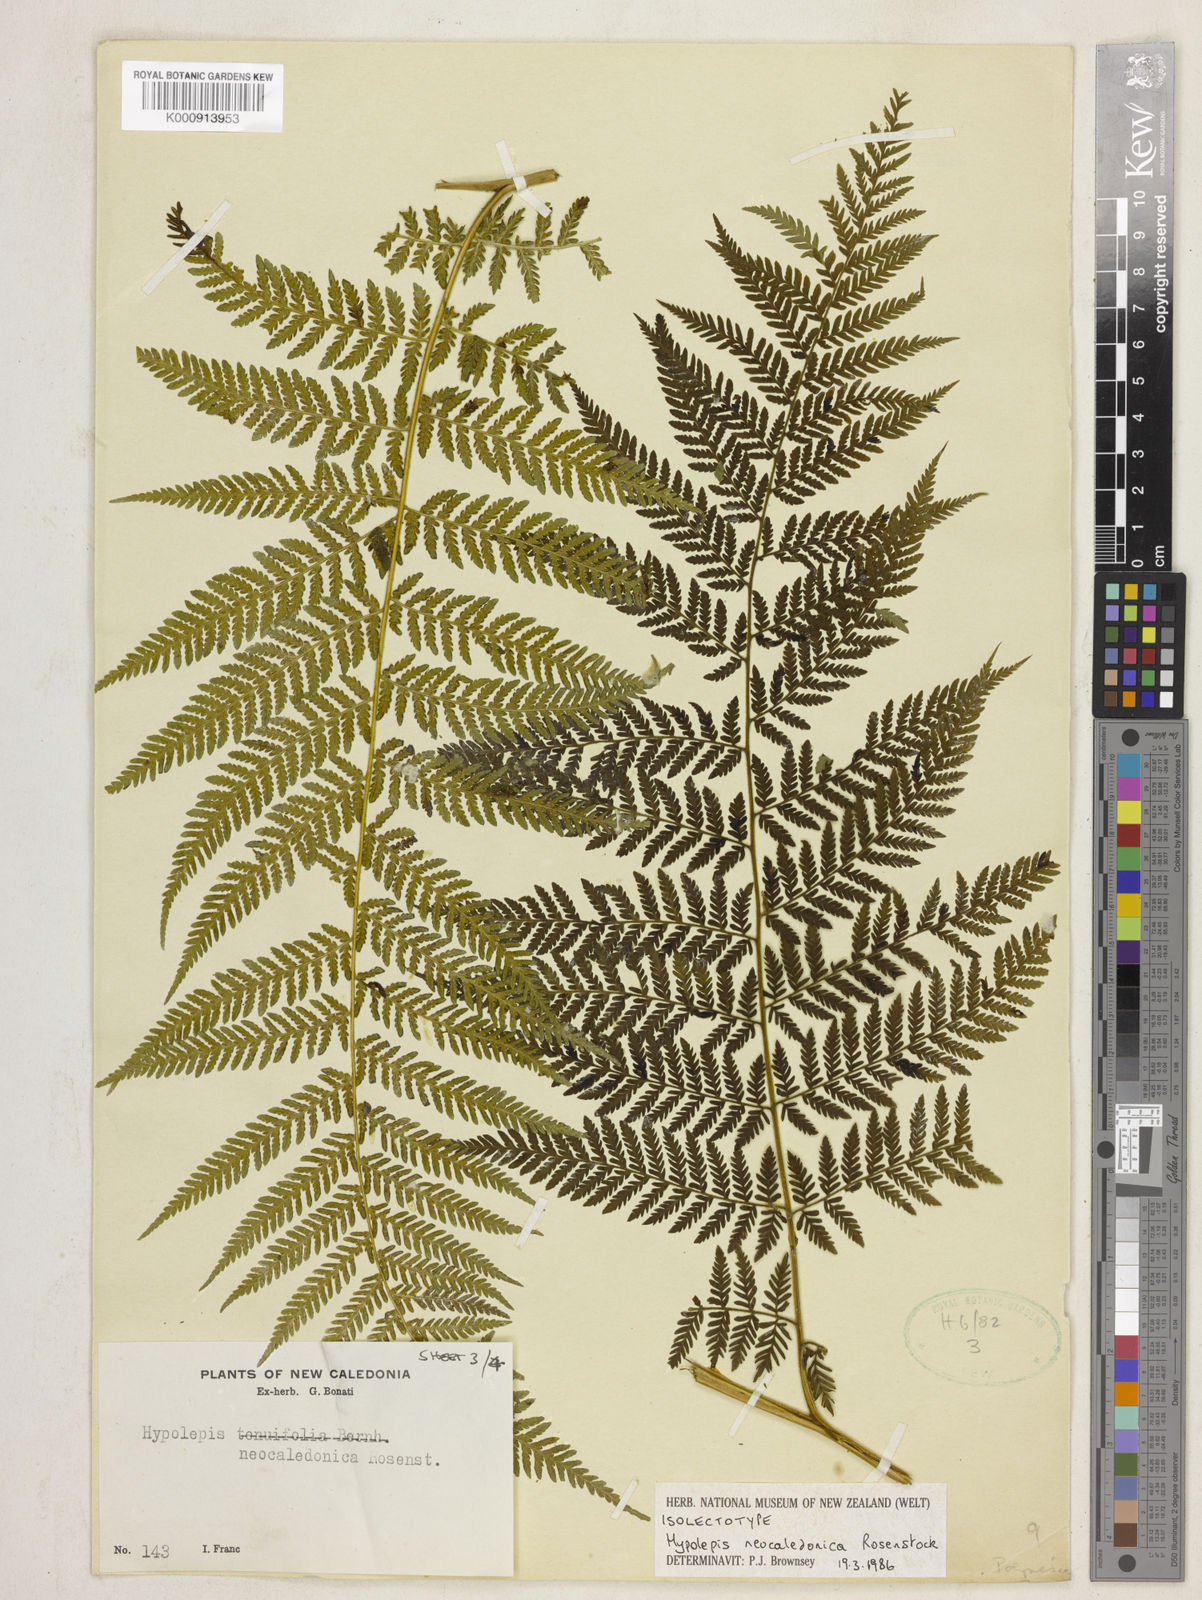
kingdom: Plantae
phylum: Tracheophyta
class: Polypodiopsida
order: Polypodiales
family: Dennstaedtiaceae
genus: Hypolepis
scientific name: Hypolepis tenuifolia
